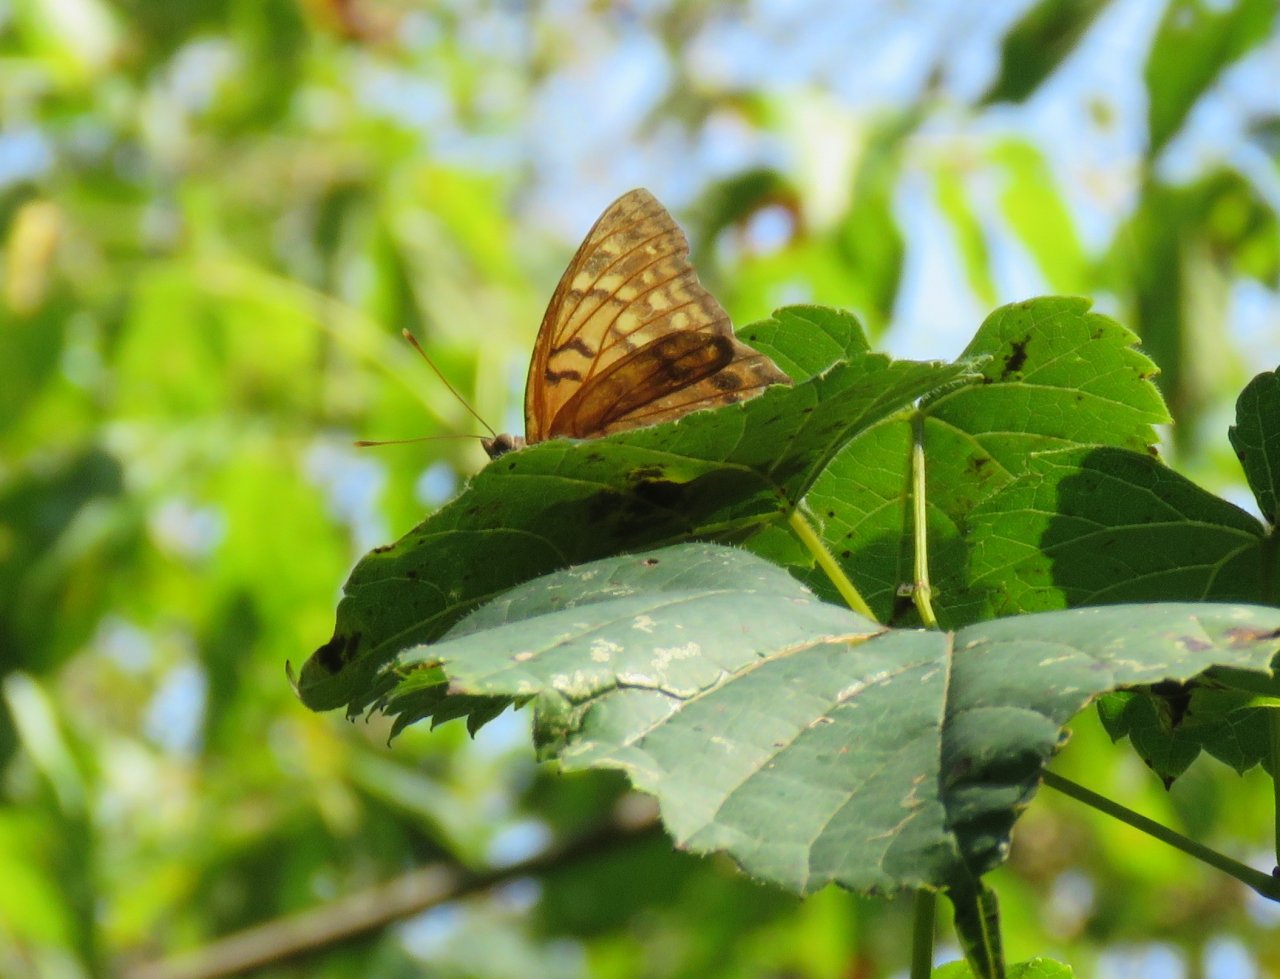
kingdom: Animalia
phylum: Arthropoda
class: Insecta
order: Lepidoptera
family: Nymphalidae
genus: Asterocampa
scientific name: Asterocampa clyton
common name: Tawny Emperor
